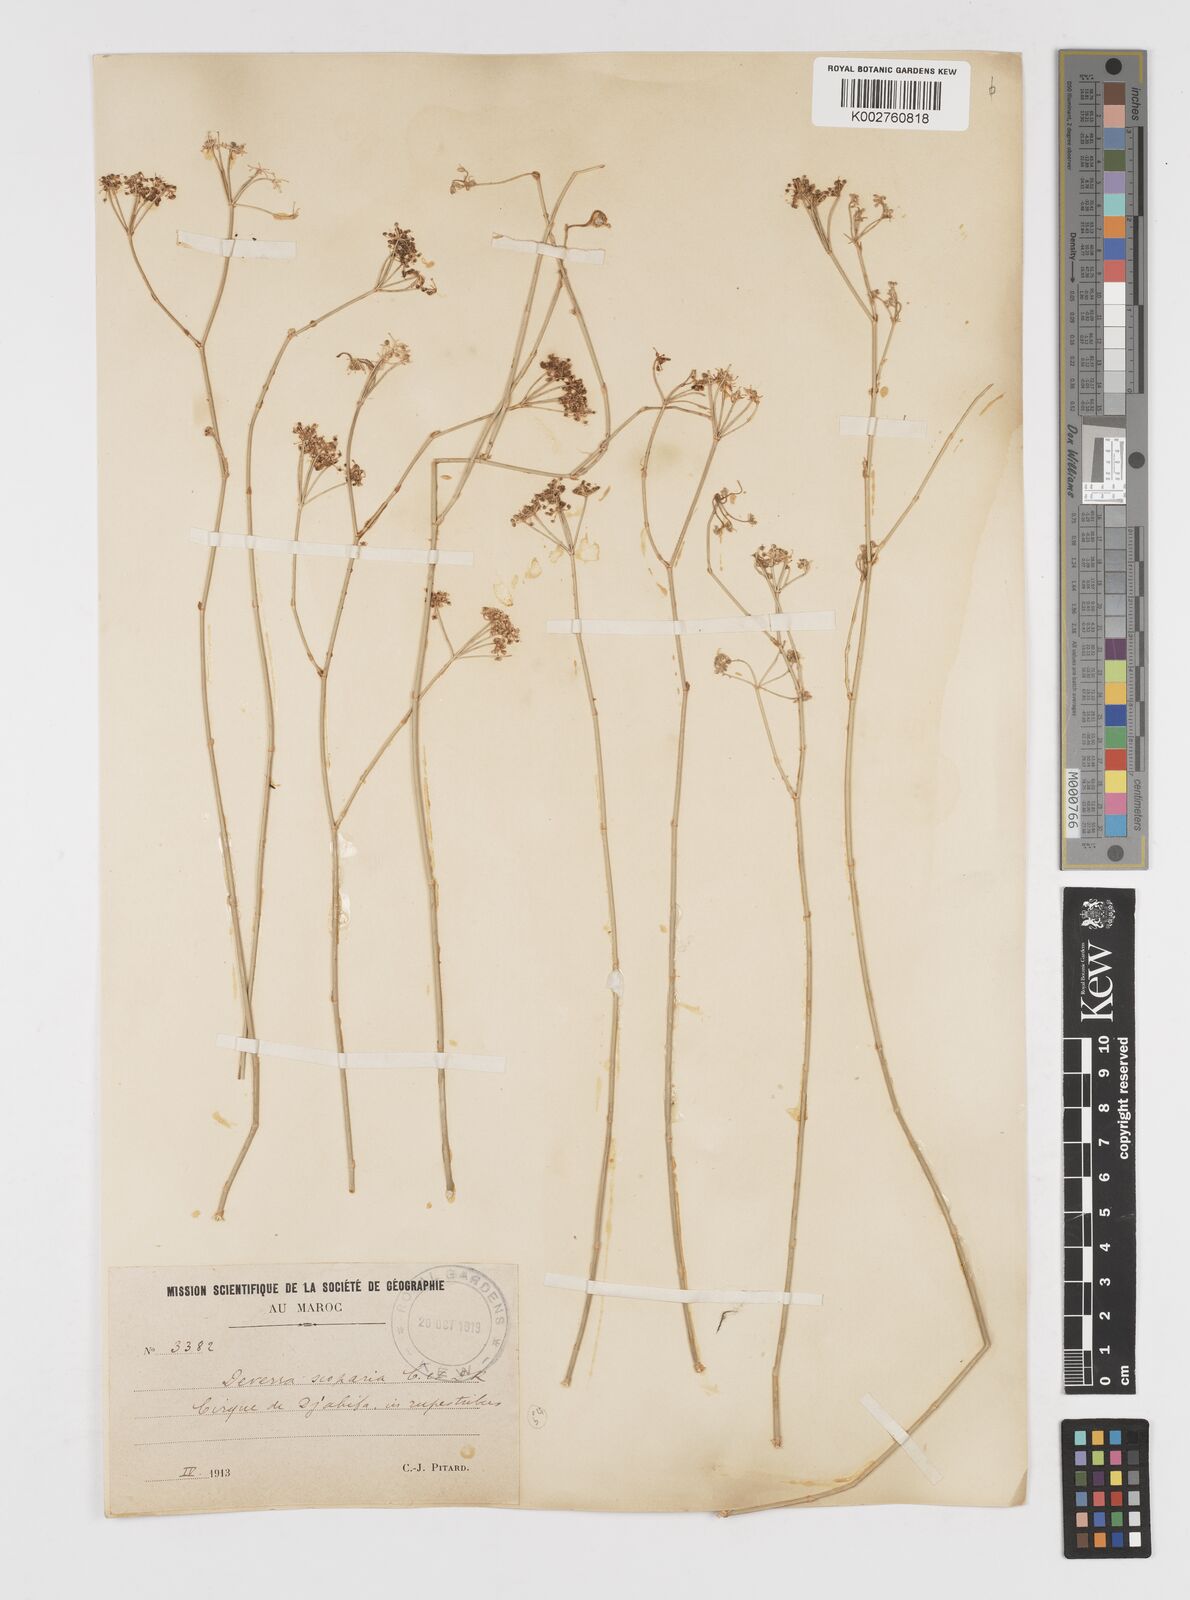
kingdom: Plantae
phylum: Tracheophyta
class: Magnoliopsida
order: Apiales
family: Apiaceae
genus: Deverra
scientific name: Deverra scoparia
